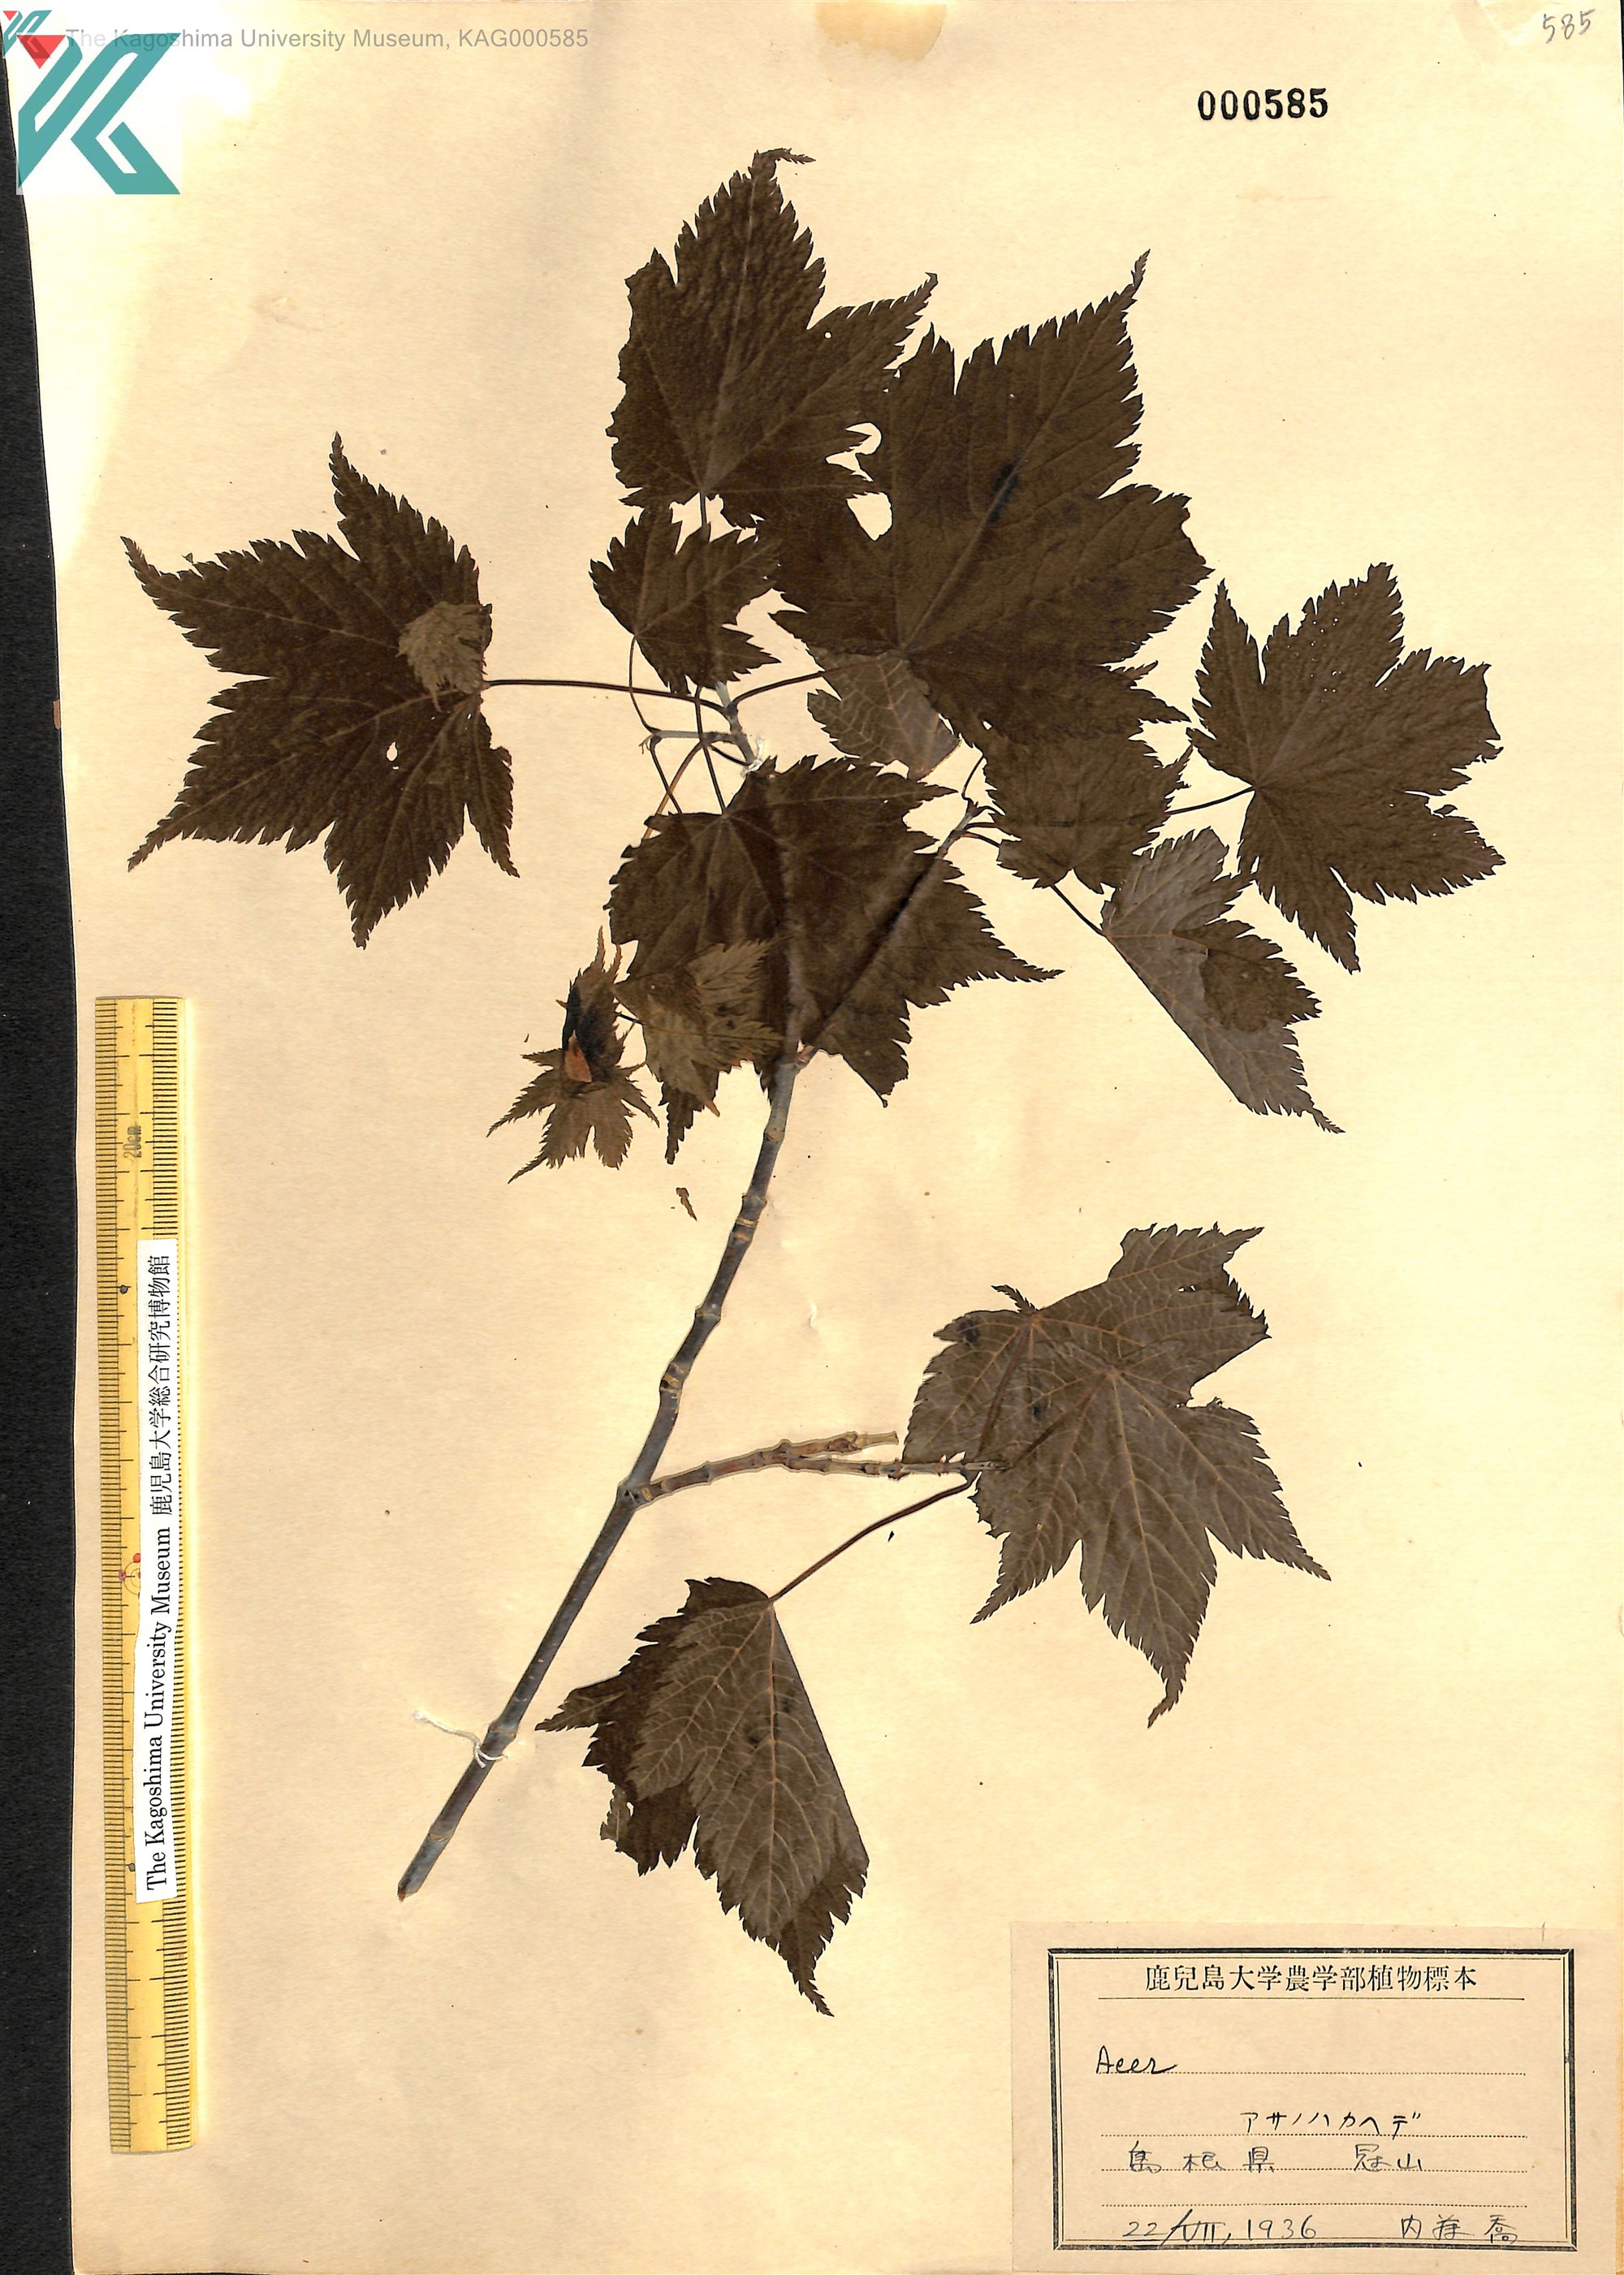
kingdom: Plantae
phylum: Tracheophyta
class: Magnoliopsida
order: Sapindales
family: Sapindaceae
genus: Acer
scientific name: Acer argutum
